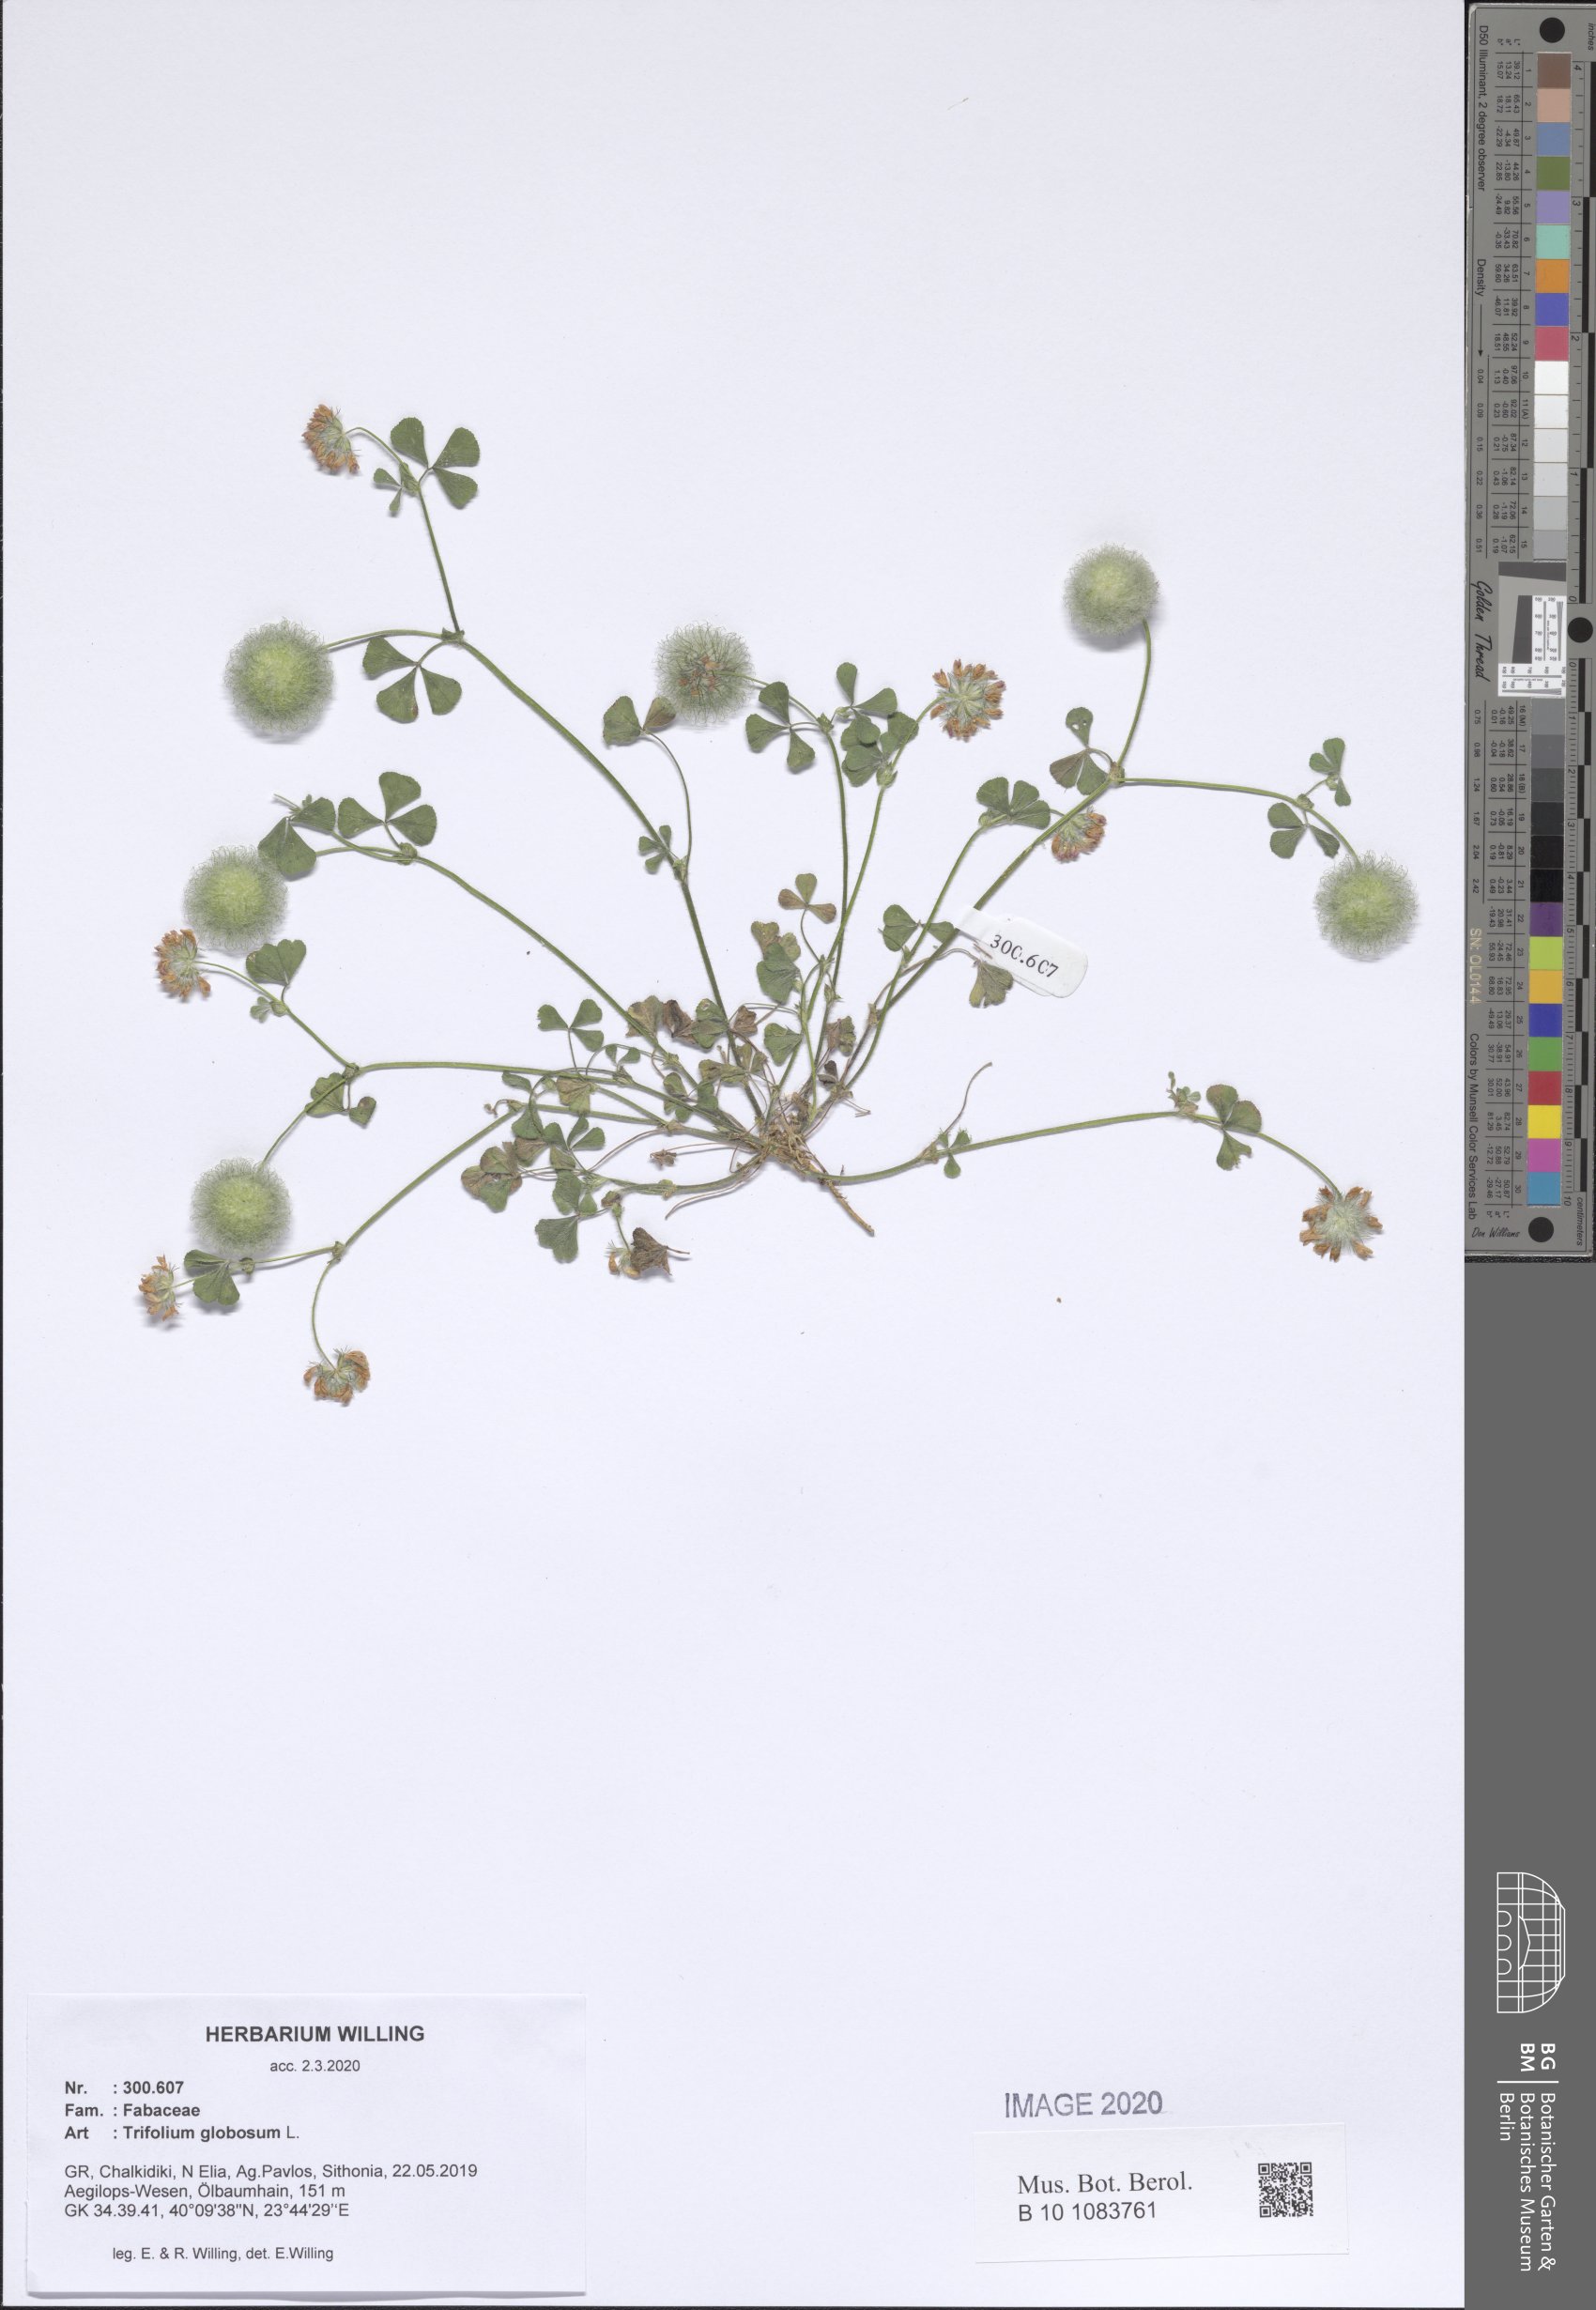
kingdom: Plantae
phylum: Tracheophyta
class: Magnoliopsida
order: Fabales
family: Fabaceae
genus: Trifolium
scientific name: Trifolium globosum
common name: Round-head clover
